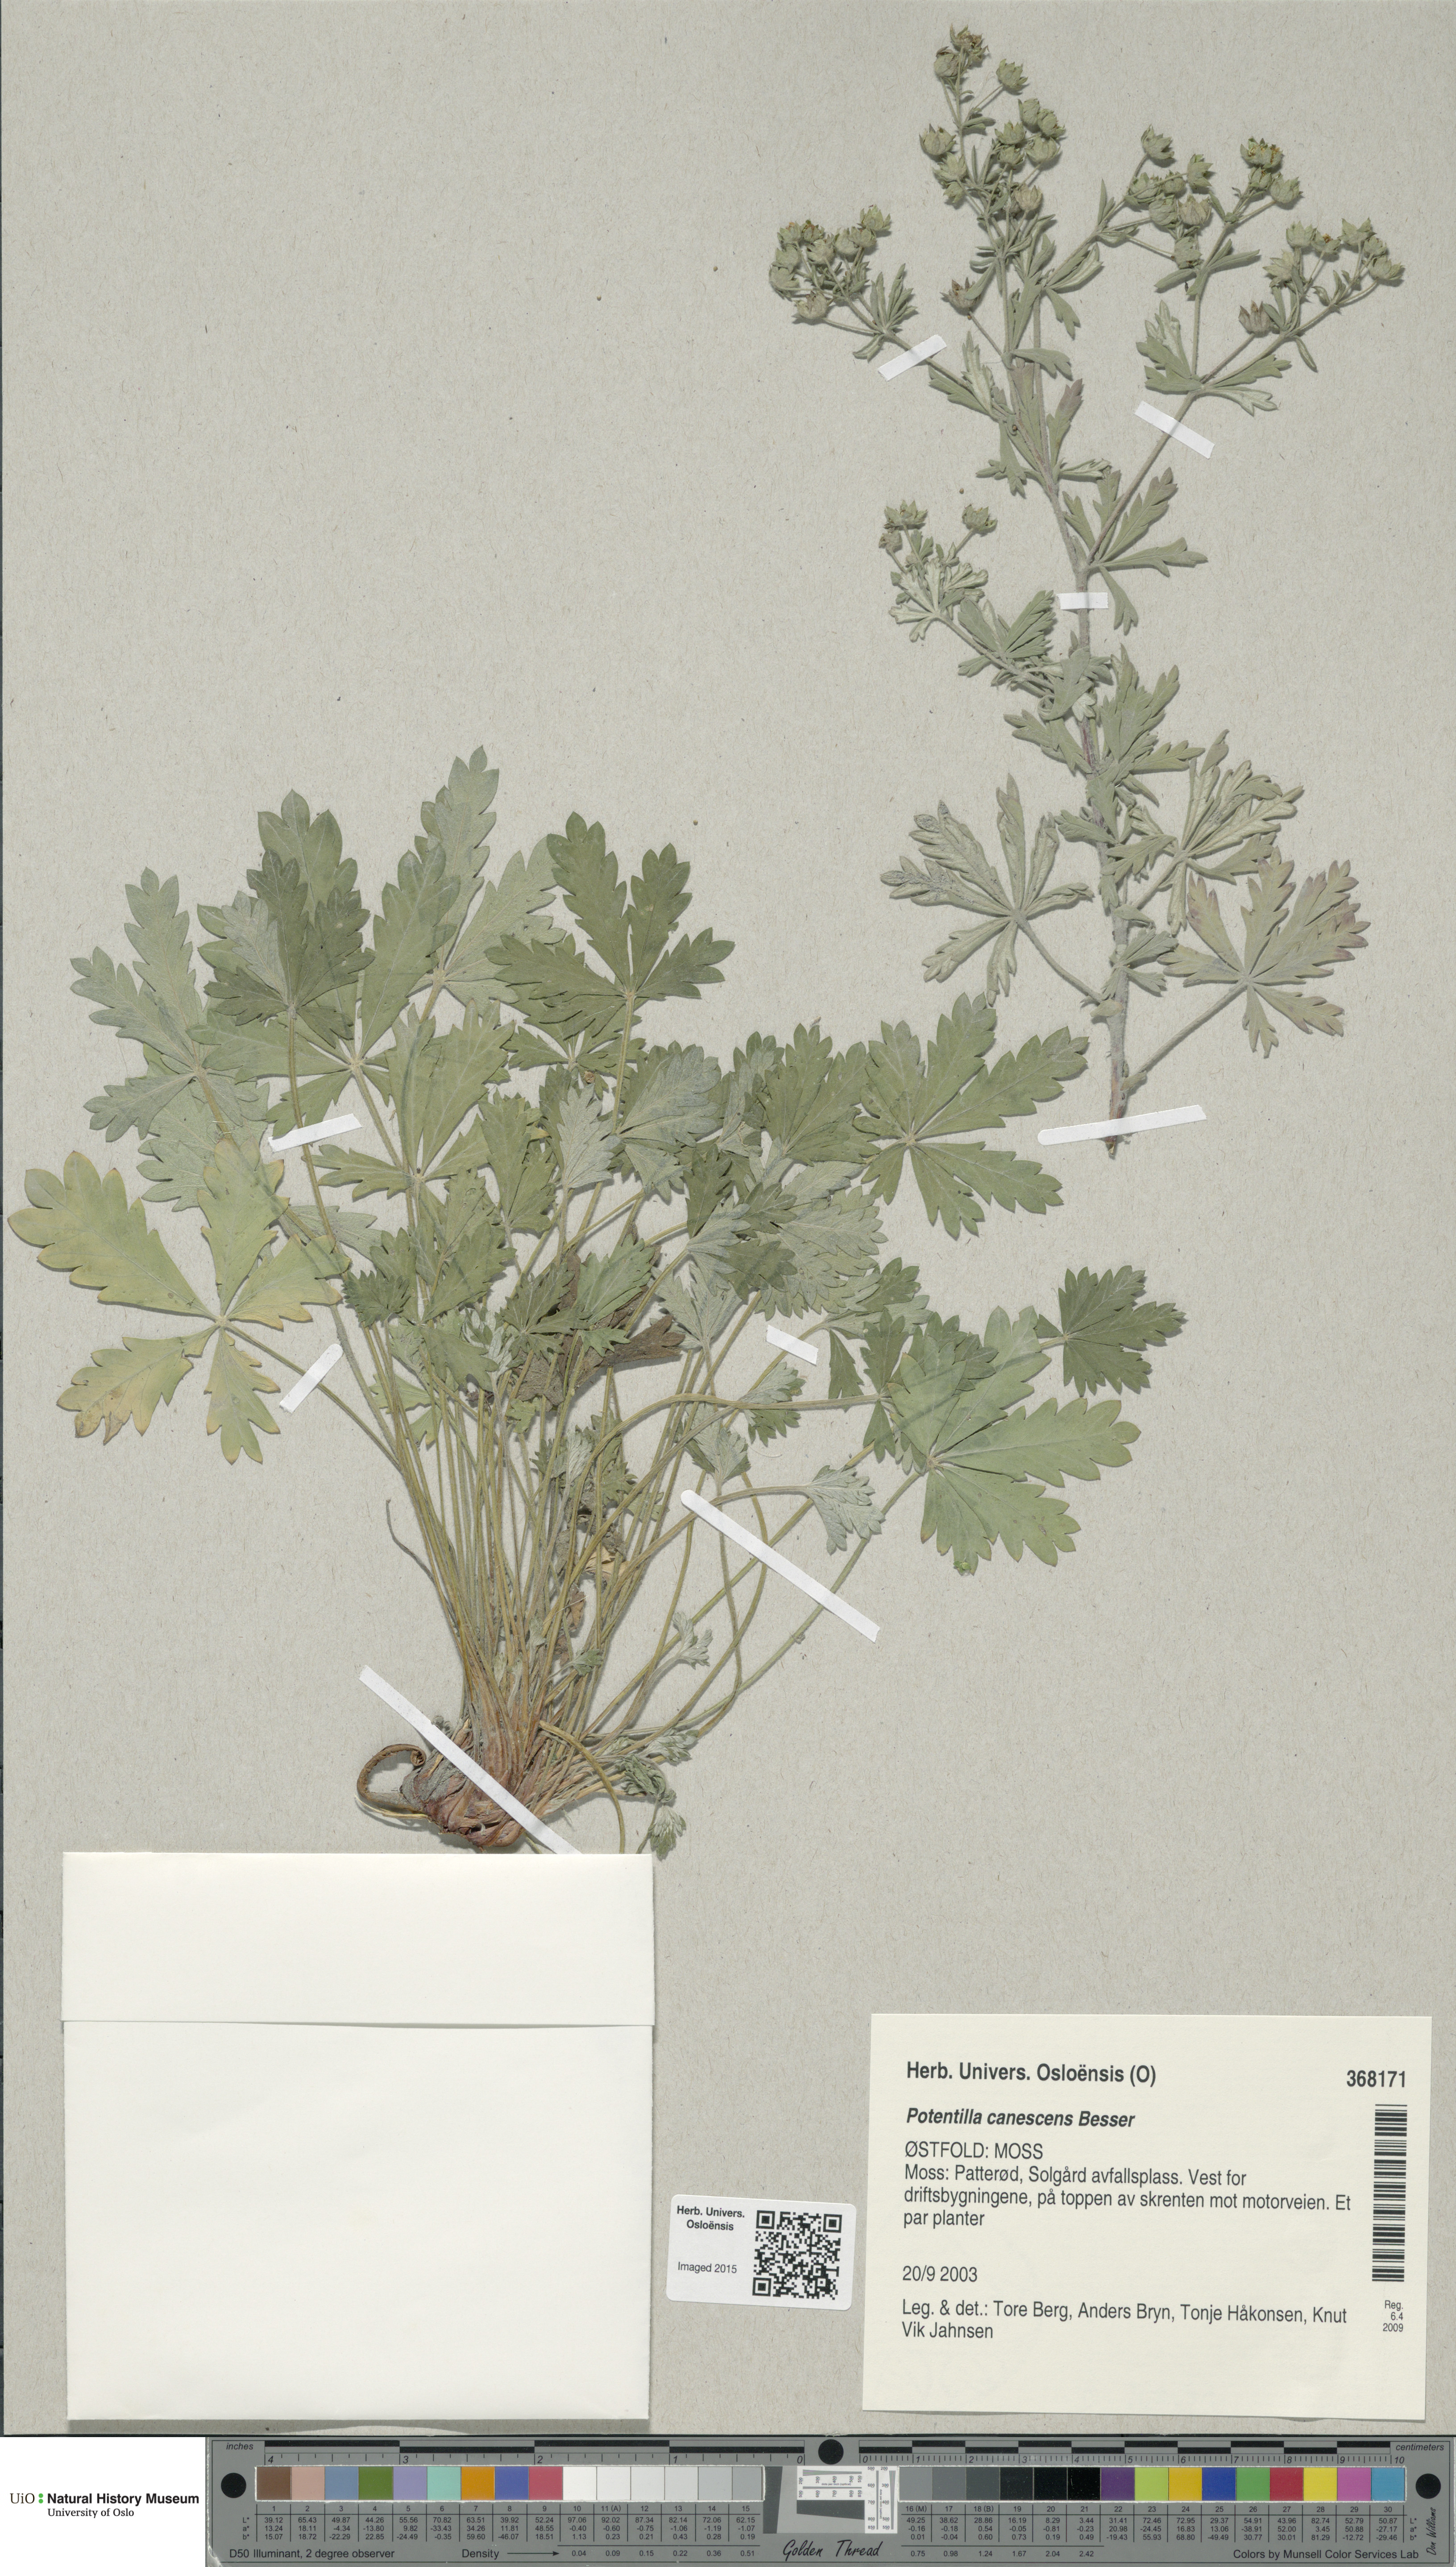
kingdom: Plantae
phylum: Tracheophyta
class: Magnoliopsida
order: Rosales
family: Rosaceae
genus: Potentilla
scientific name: Potentilla argentea
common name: Hoary cinquefoil
